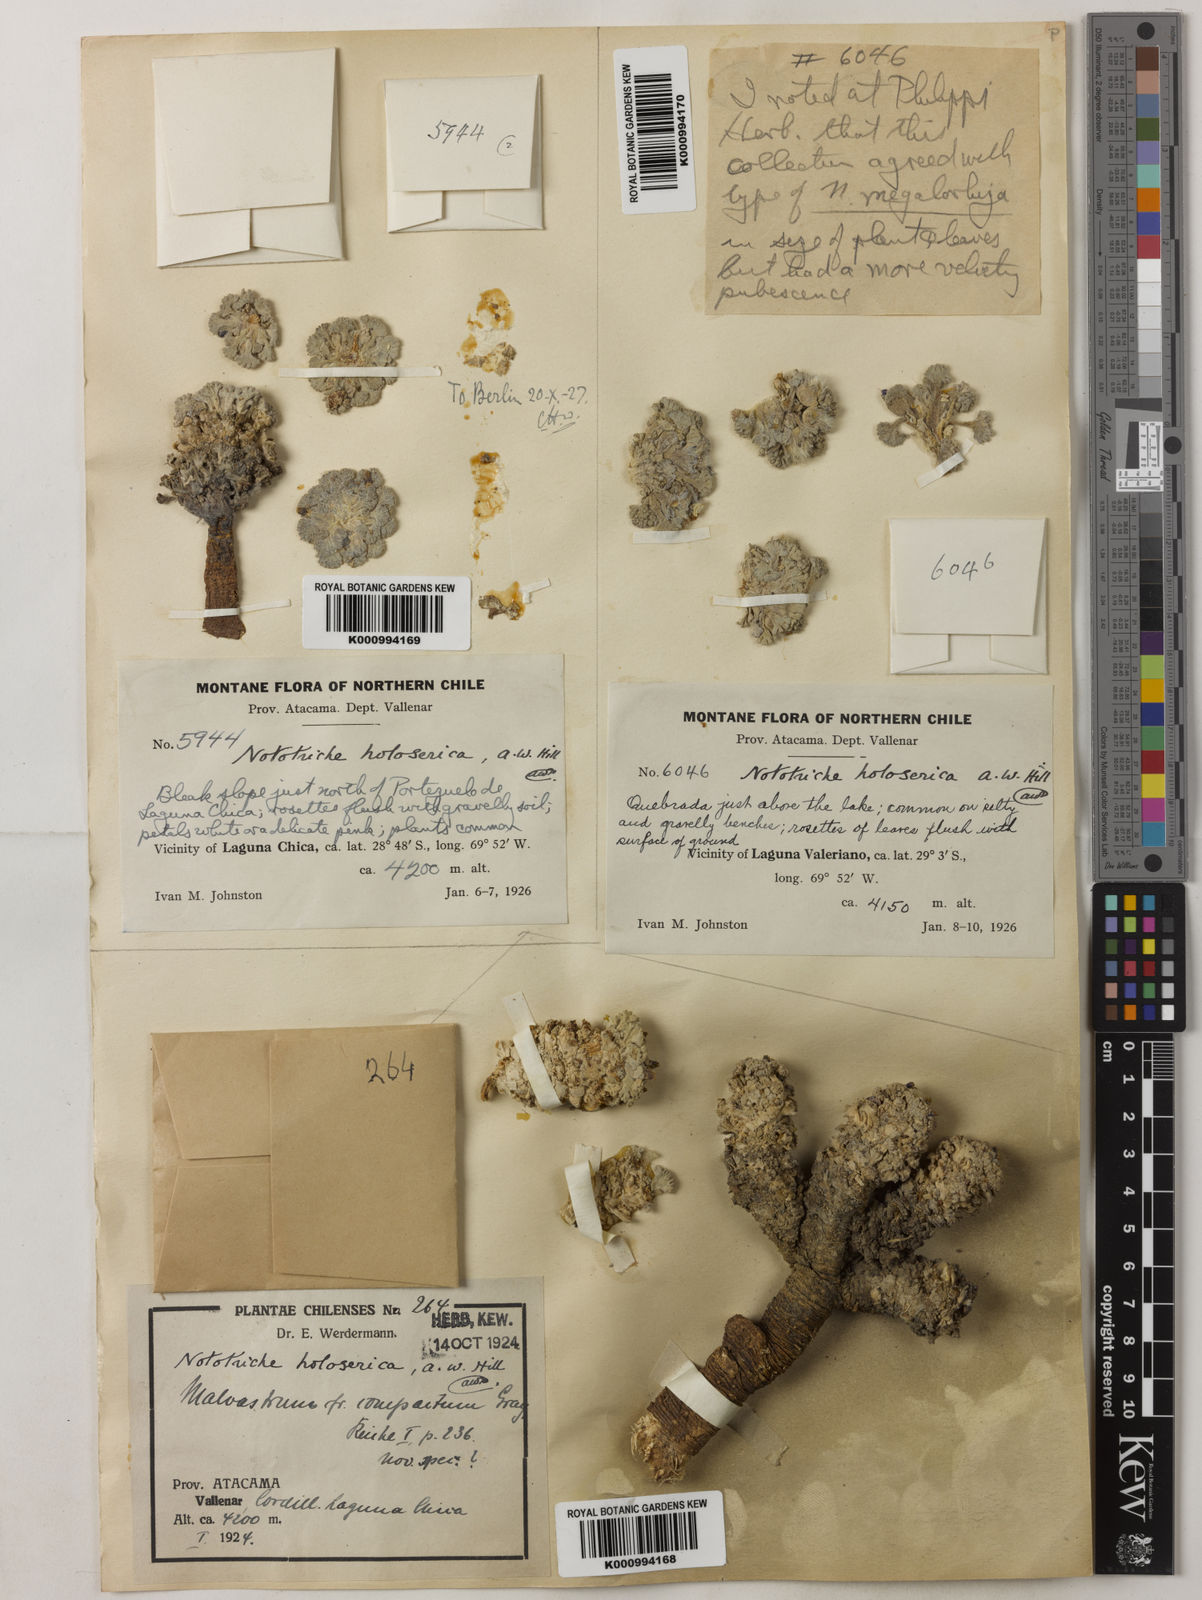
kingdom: Plantae
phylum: Tracheophyta
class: Magnoliopsida
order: Malvales
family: Malvaceae
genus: Nototriche
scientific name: Nototriche compacta
